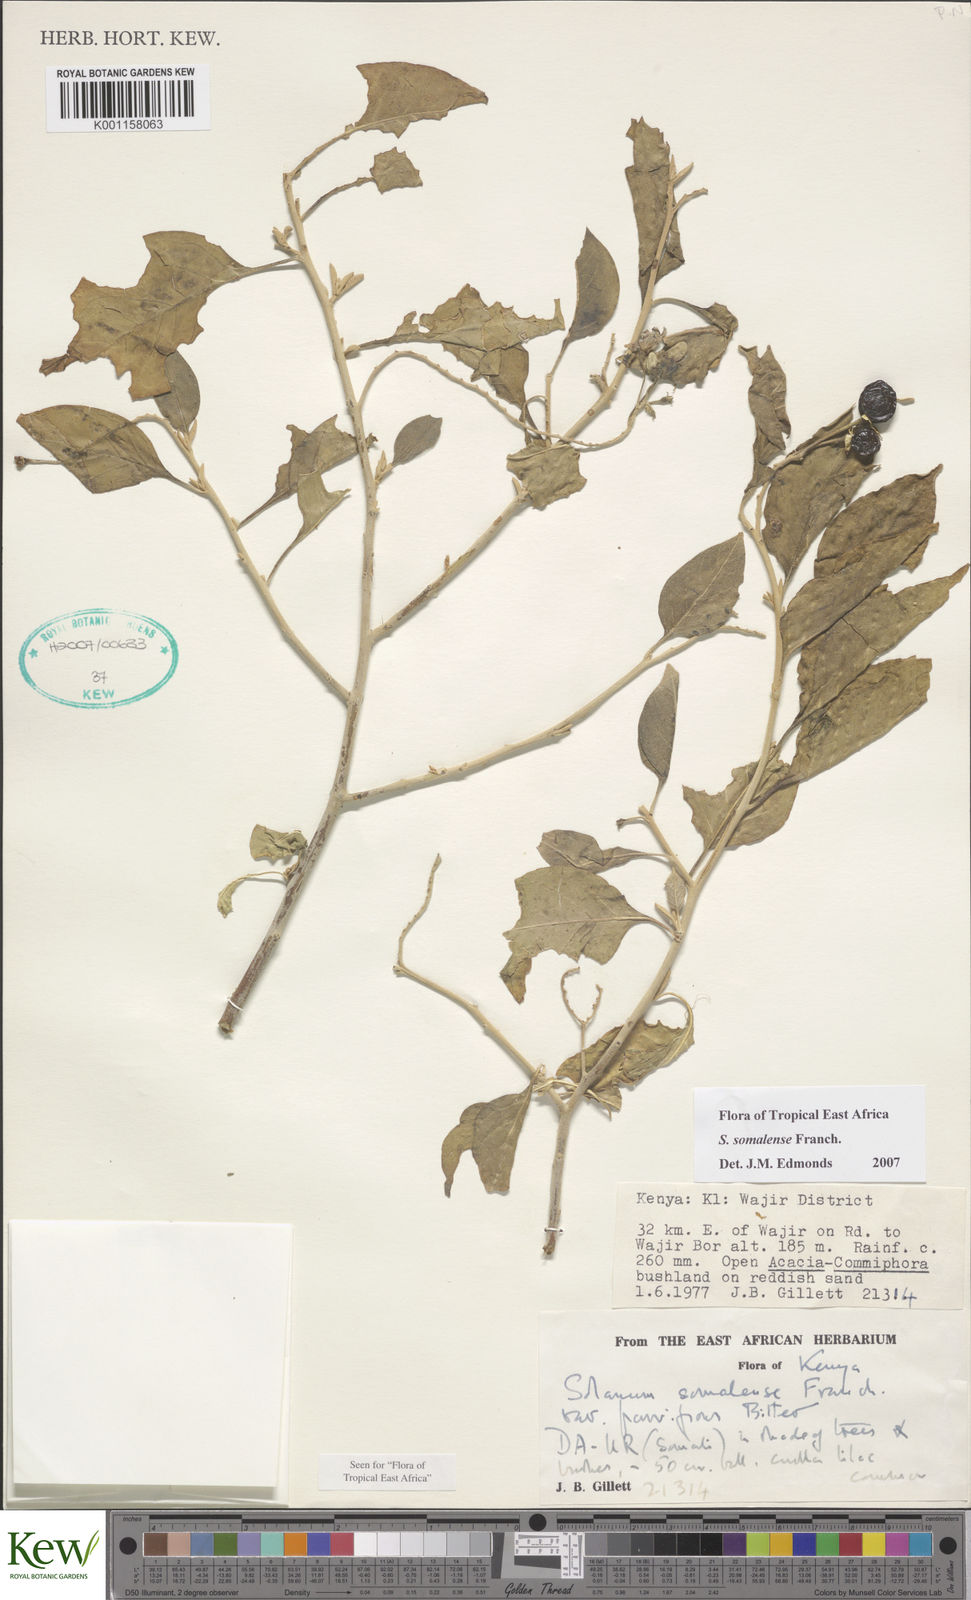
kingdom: Plantae
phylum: Tracheophyta
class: Magnoliopsida
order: Solanales
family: Solanaceae
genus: Solanum
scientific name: Solanum somalense
